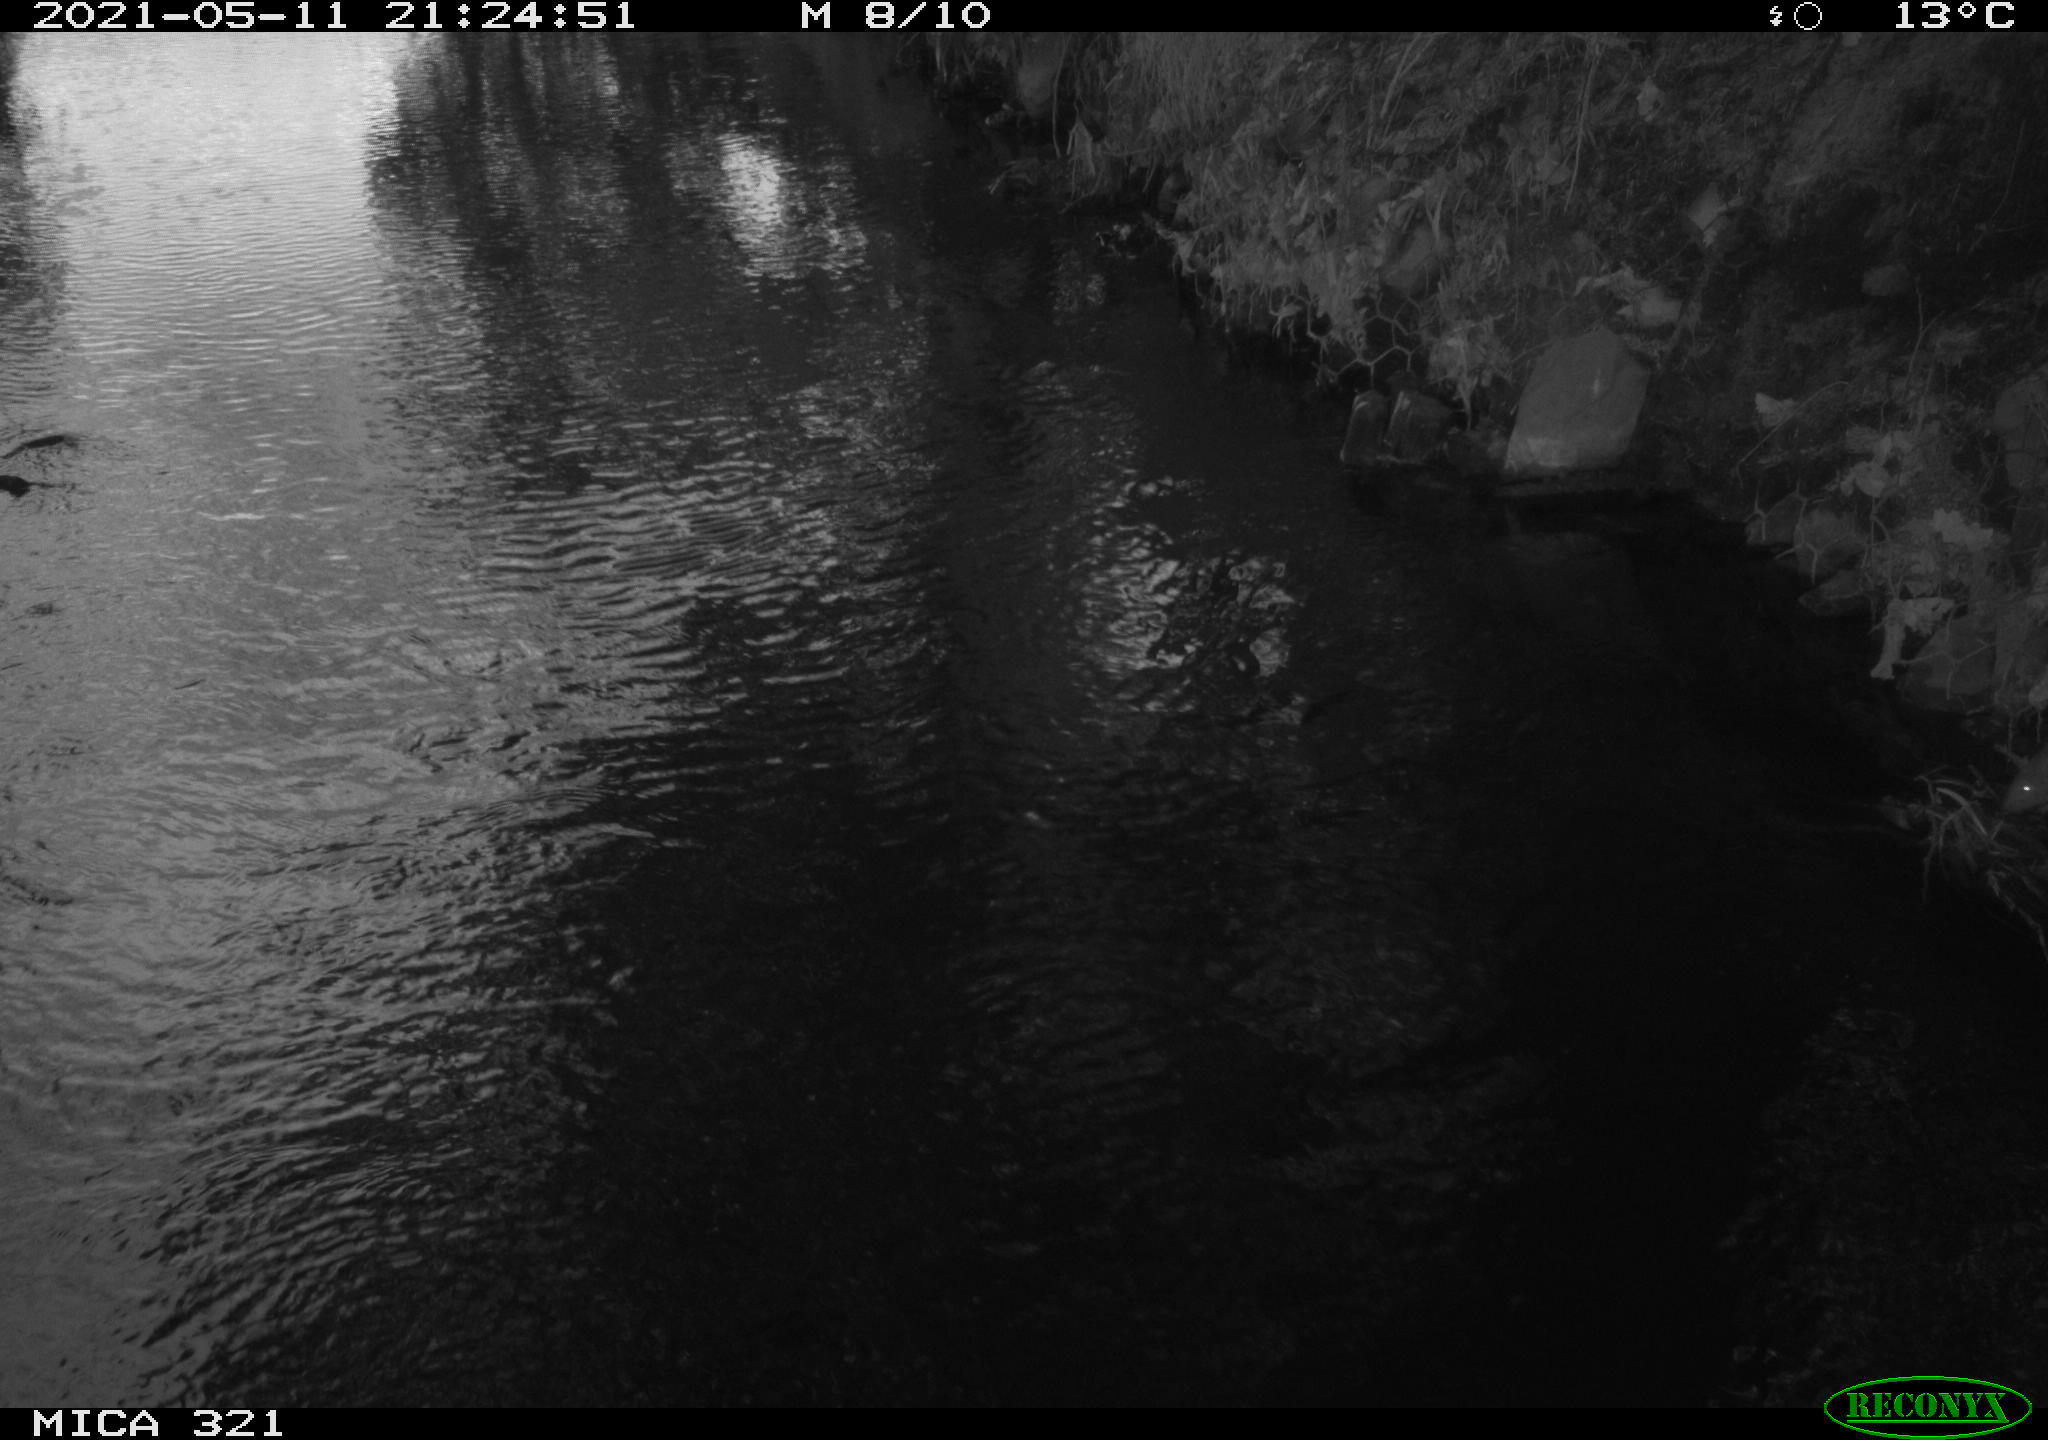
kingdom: Animalia
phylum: Chordata
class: Mammalia
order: Rodentia
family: Muridae
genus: Rattus
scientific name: Rattus norvegicus
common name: Brown rat
